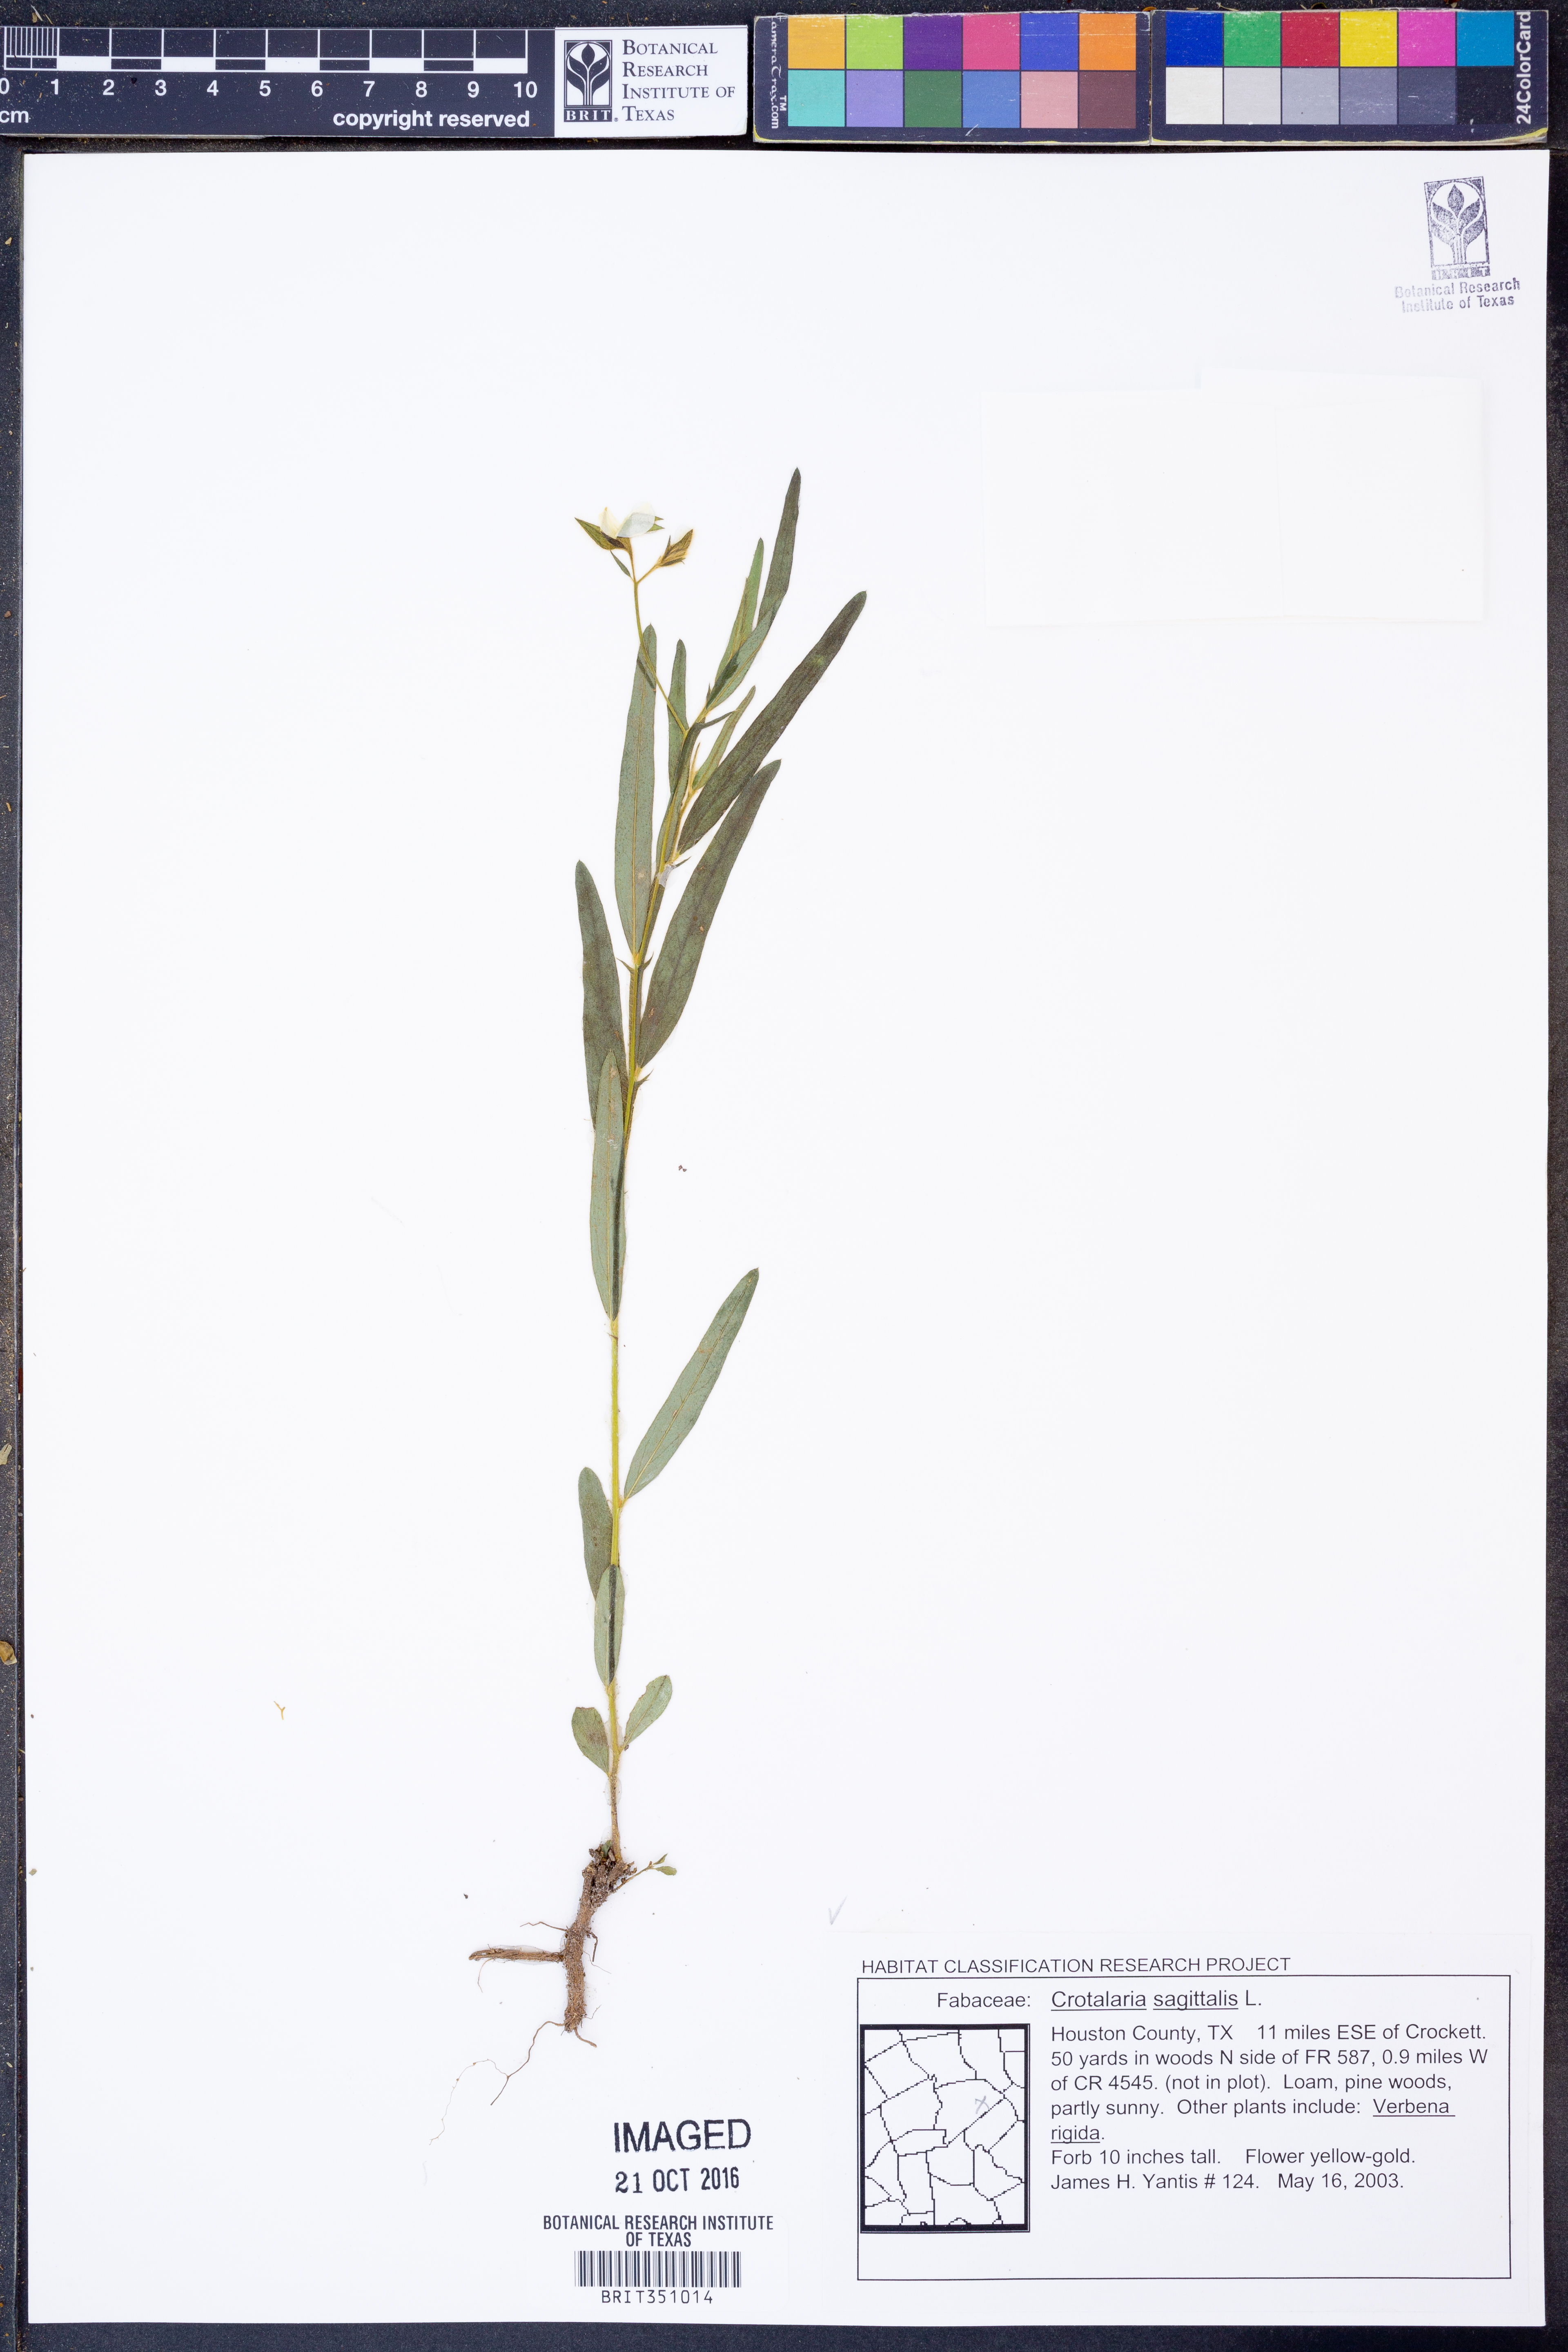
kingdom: Plantae
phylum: Tracheophyta
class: Magnoliopsida
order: Fabales
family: Fabaceae
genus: Crotalaria
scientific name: Crotalaria sagittalis
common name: Arrowhead rattlebox
